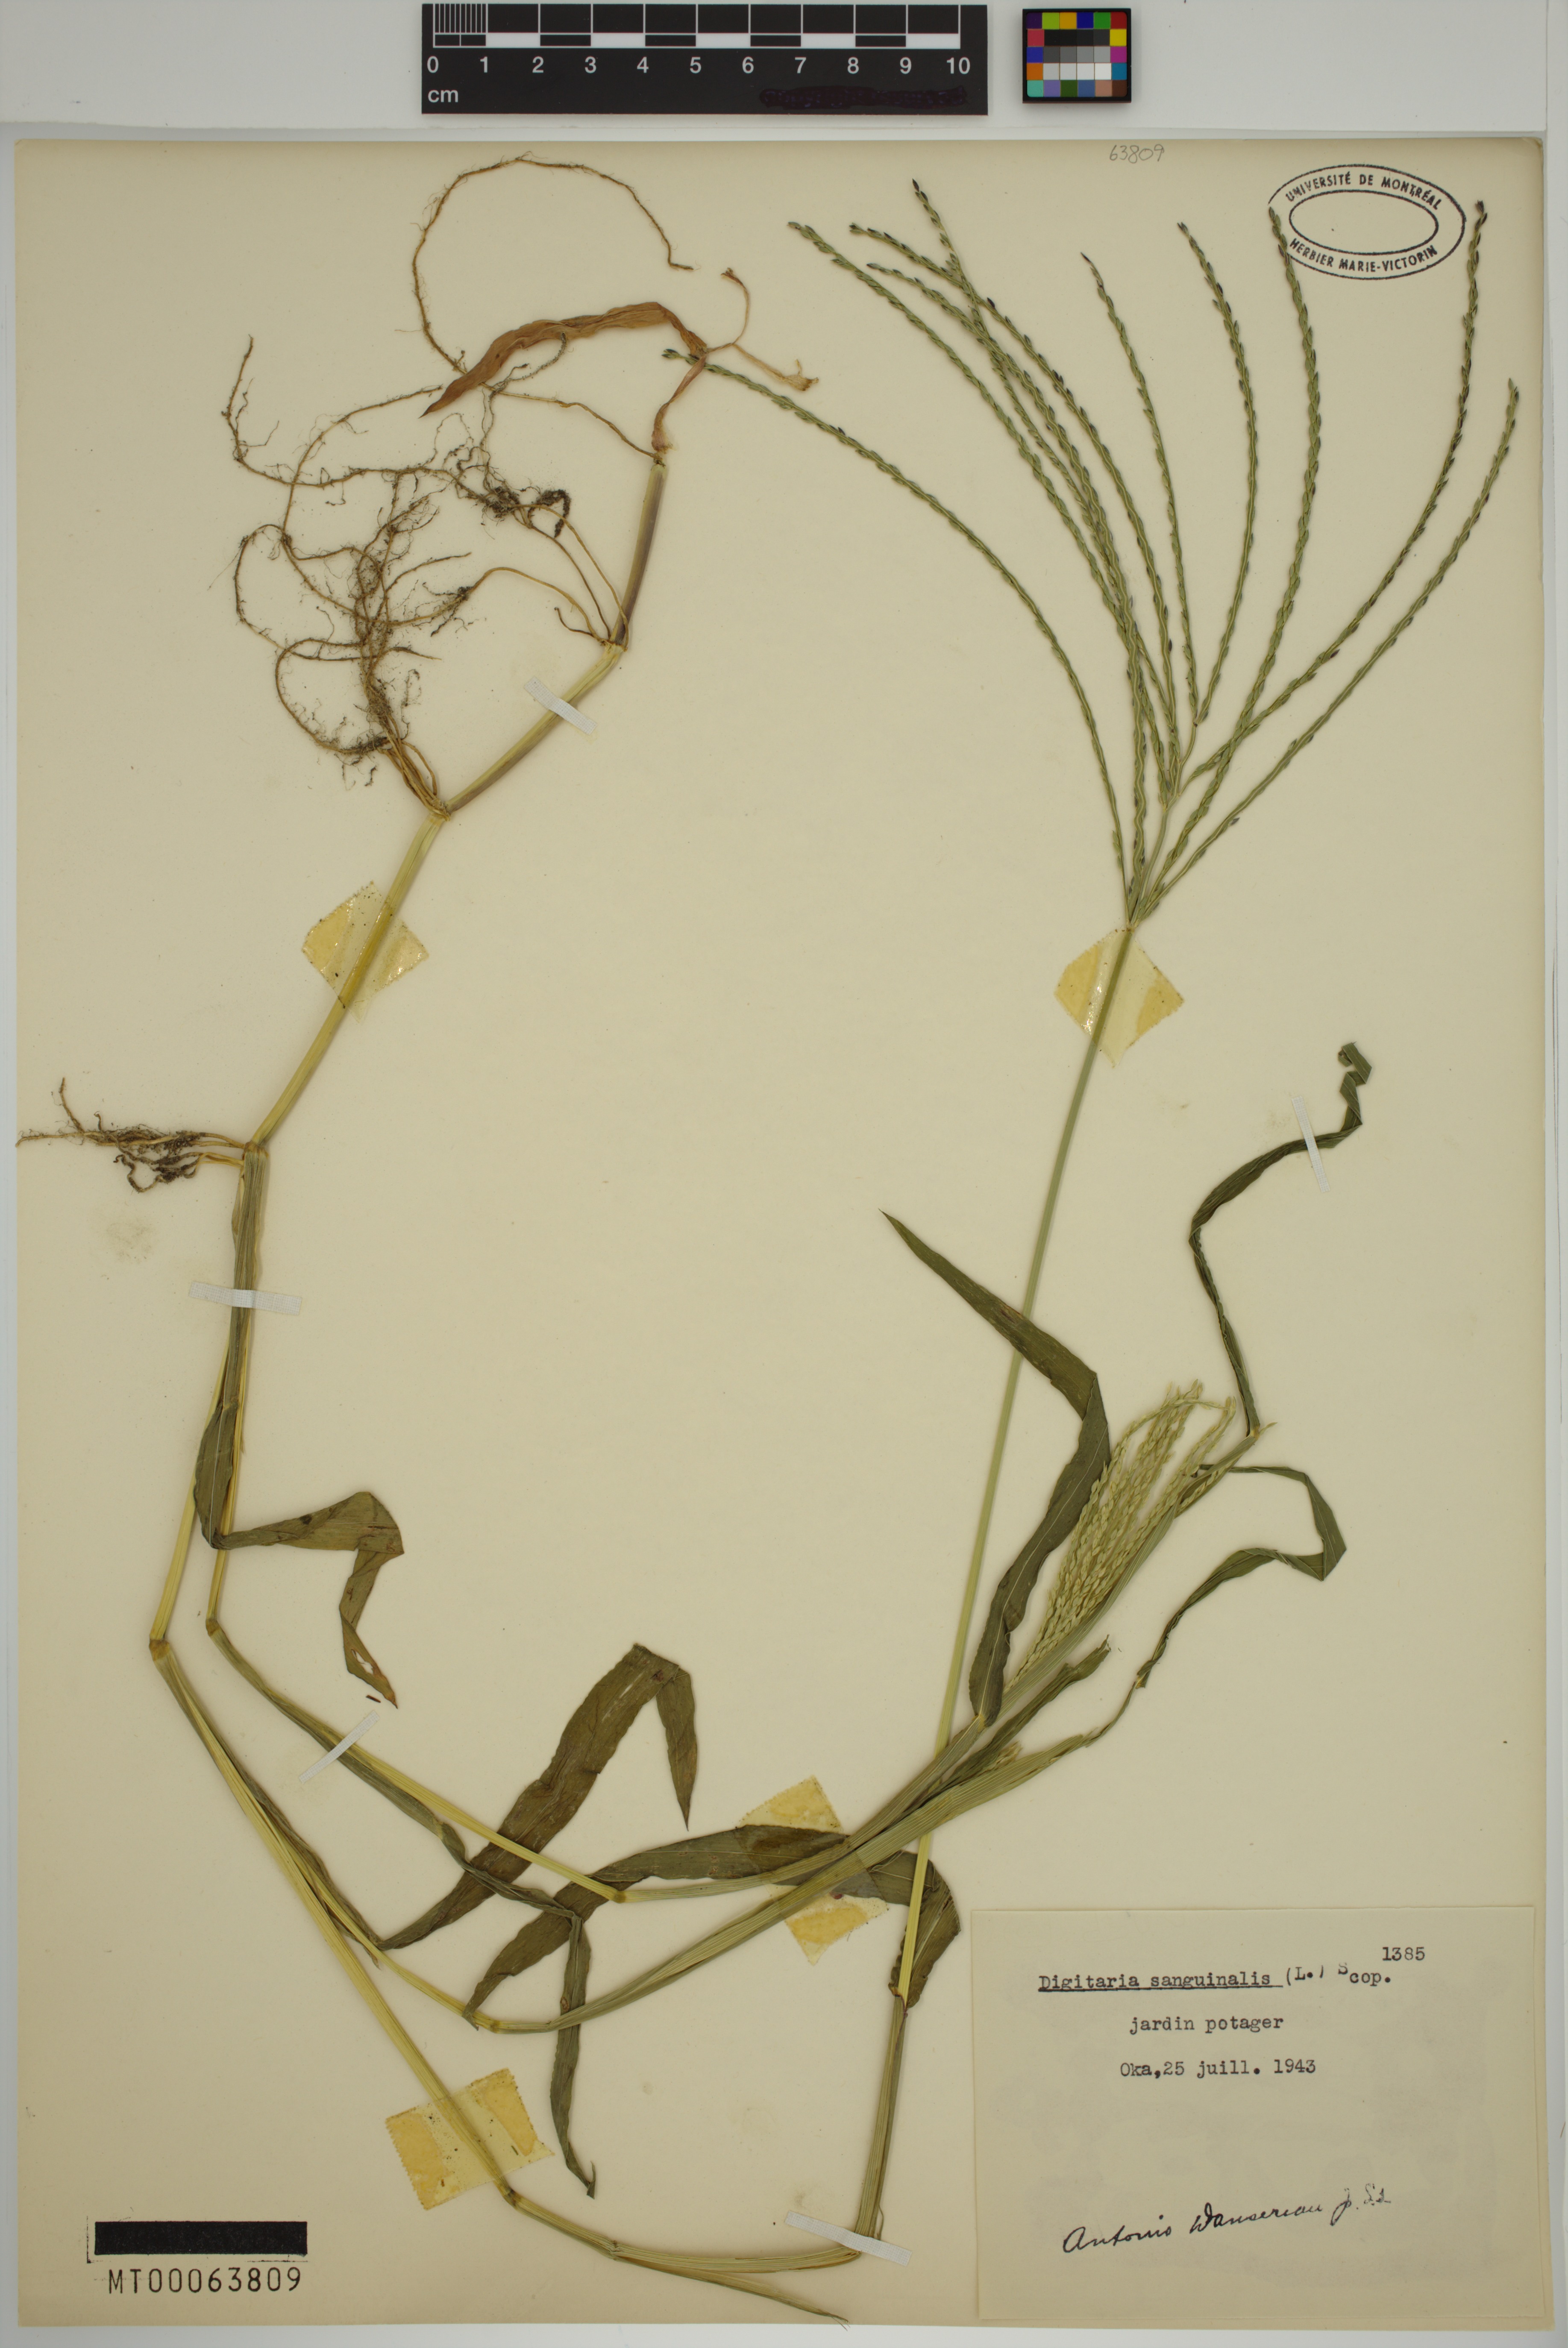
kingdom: Plantae
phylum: Tracheophyta
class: Liliopsida
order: Poales
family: Poaceae
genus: Digitaria
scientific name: Digitaria sanguinalis
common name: Hairy crabgrass
